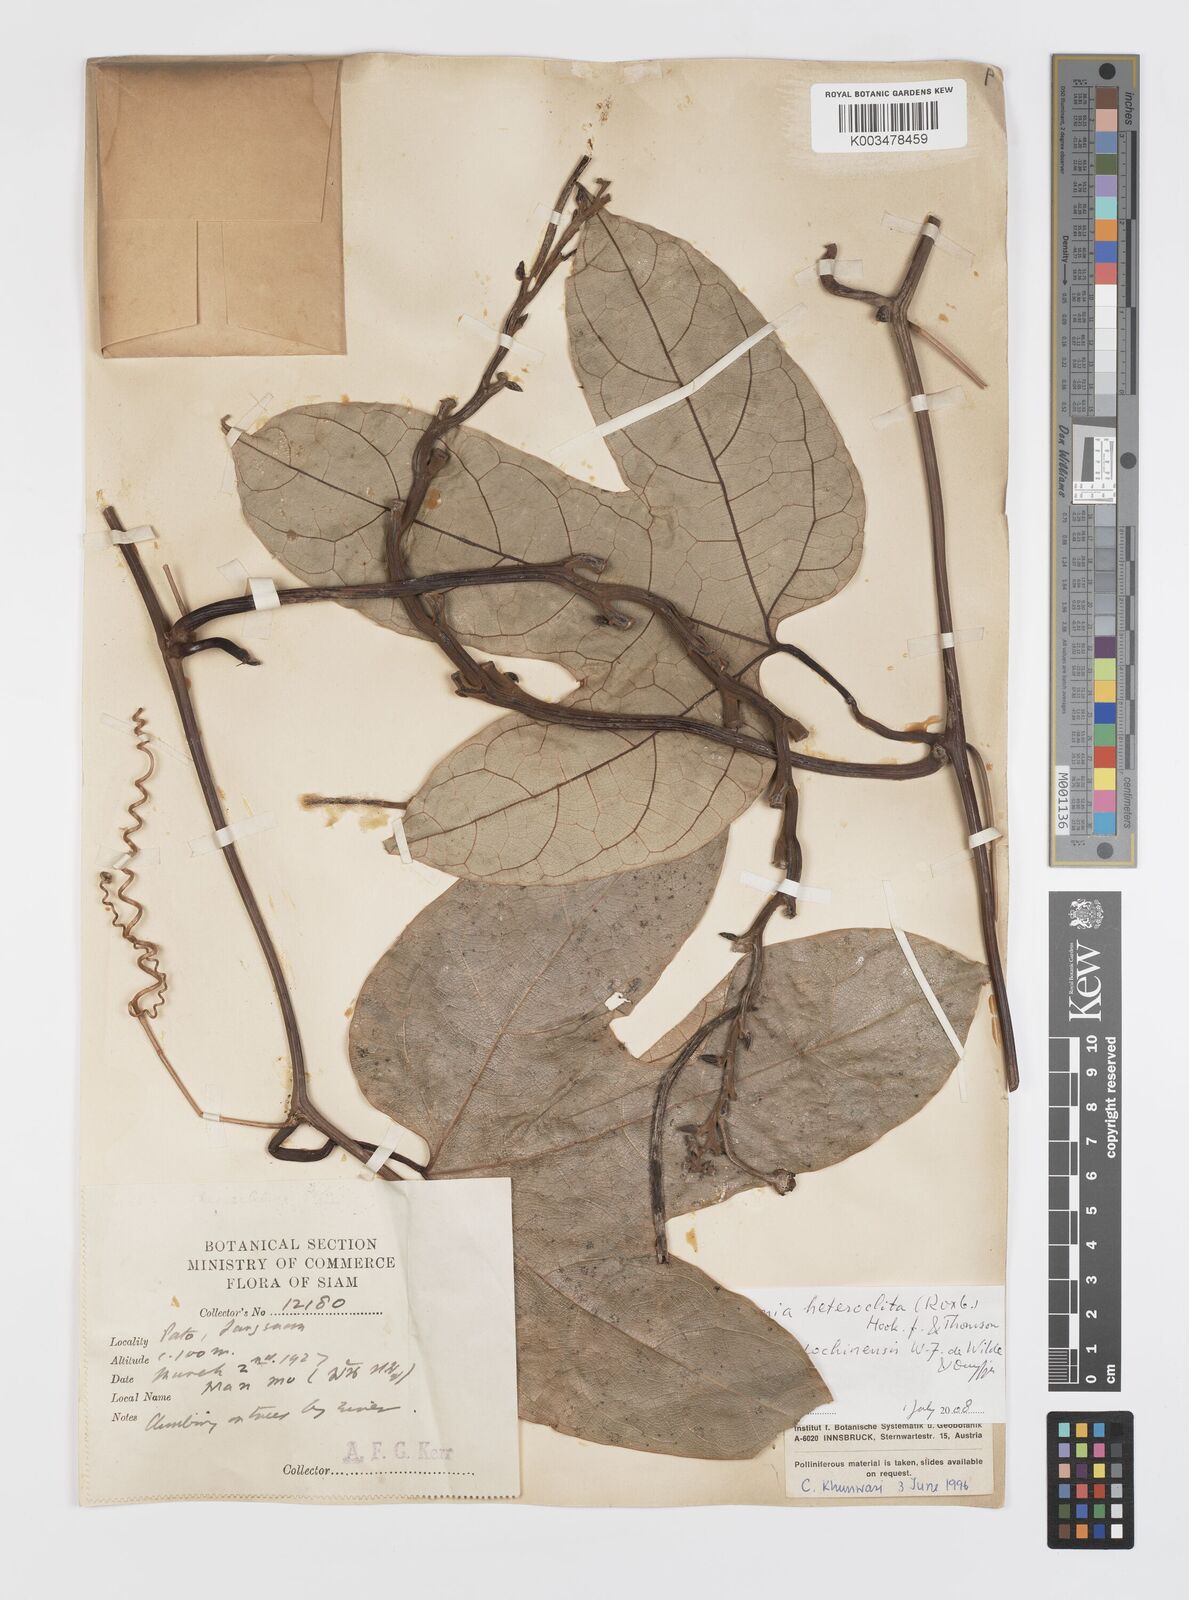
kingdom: Plantae
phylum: Tracheophyta
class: Magnoliopsida
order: Cucurbitales
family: Cucurbitaceae
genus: Hodgsonia
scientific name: Hodgsonia macrocarpa
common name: Chinese lardfruit
